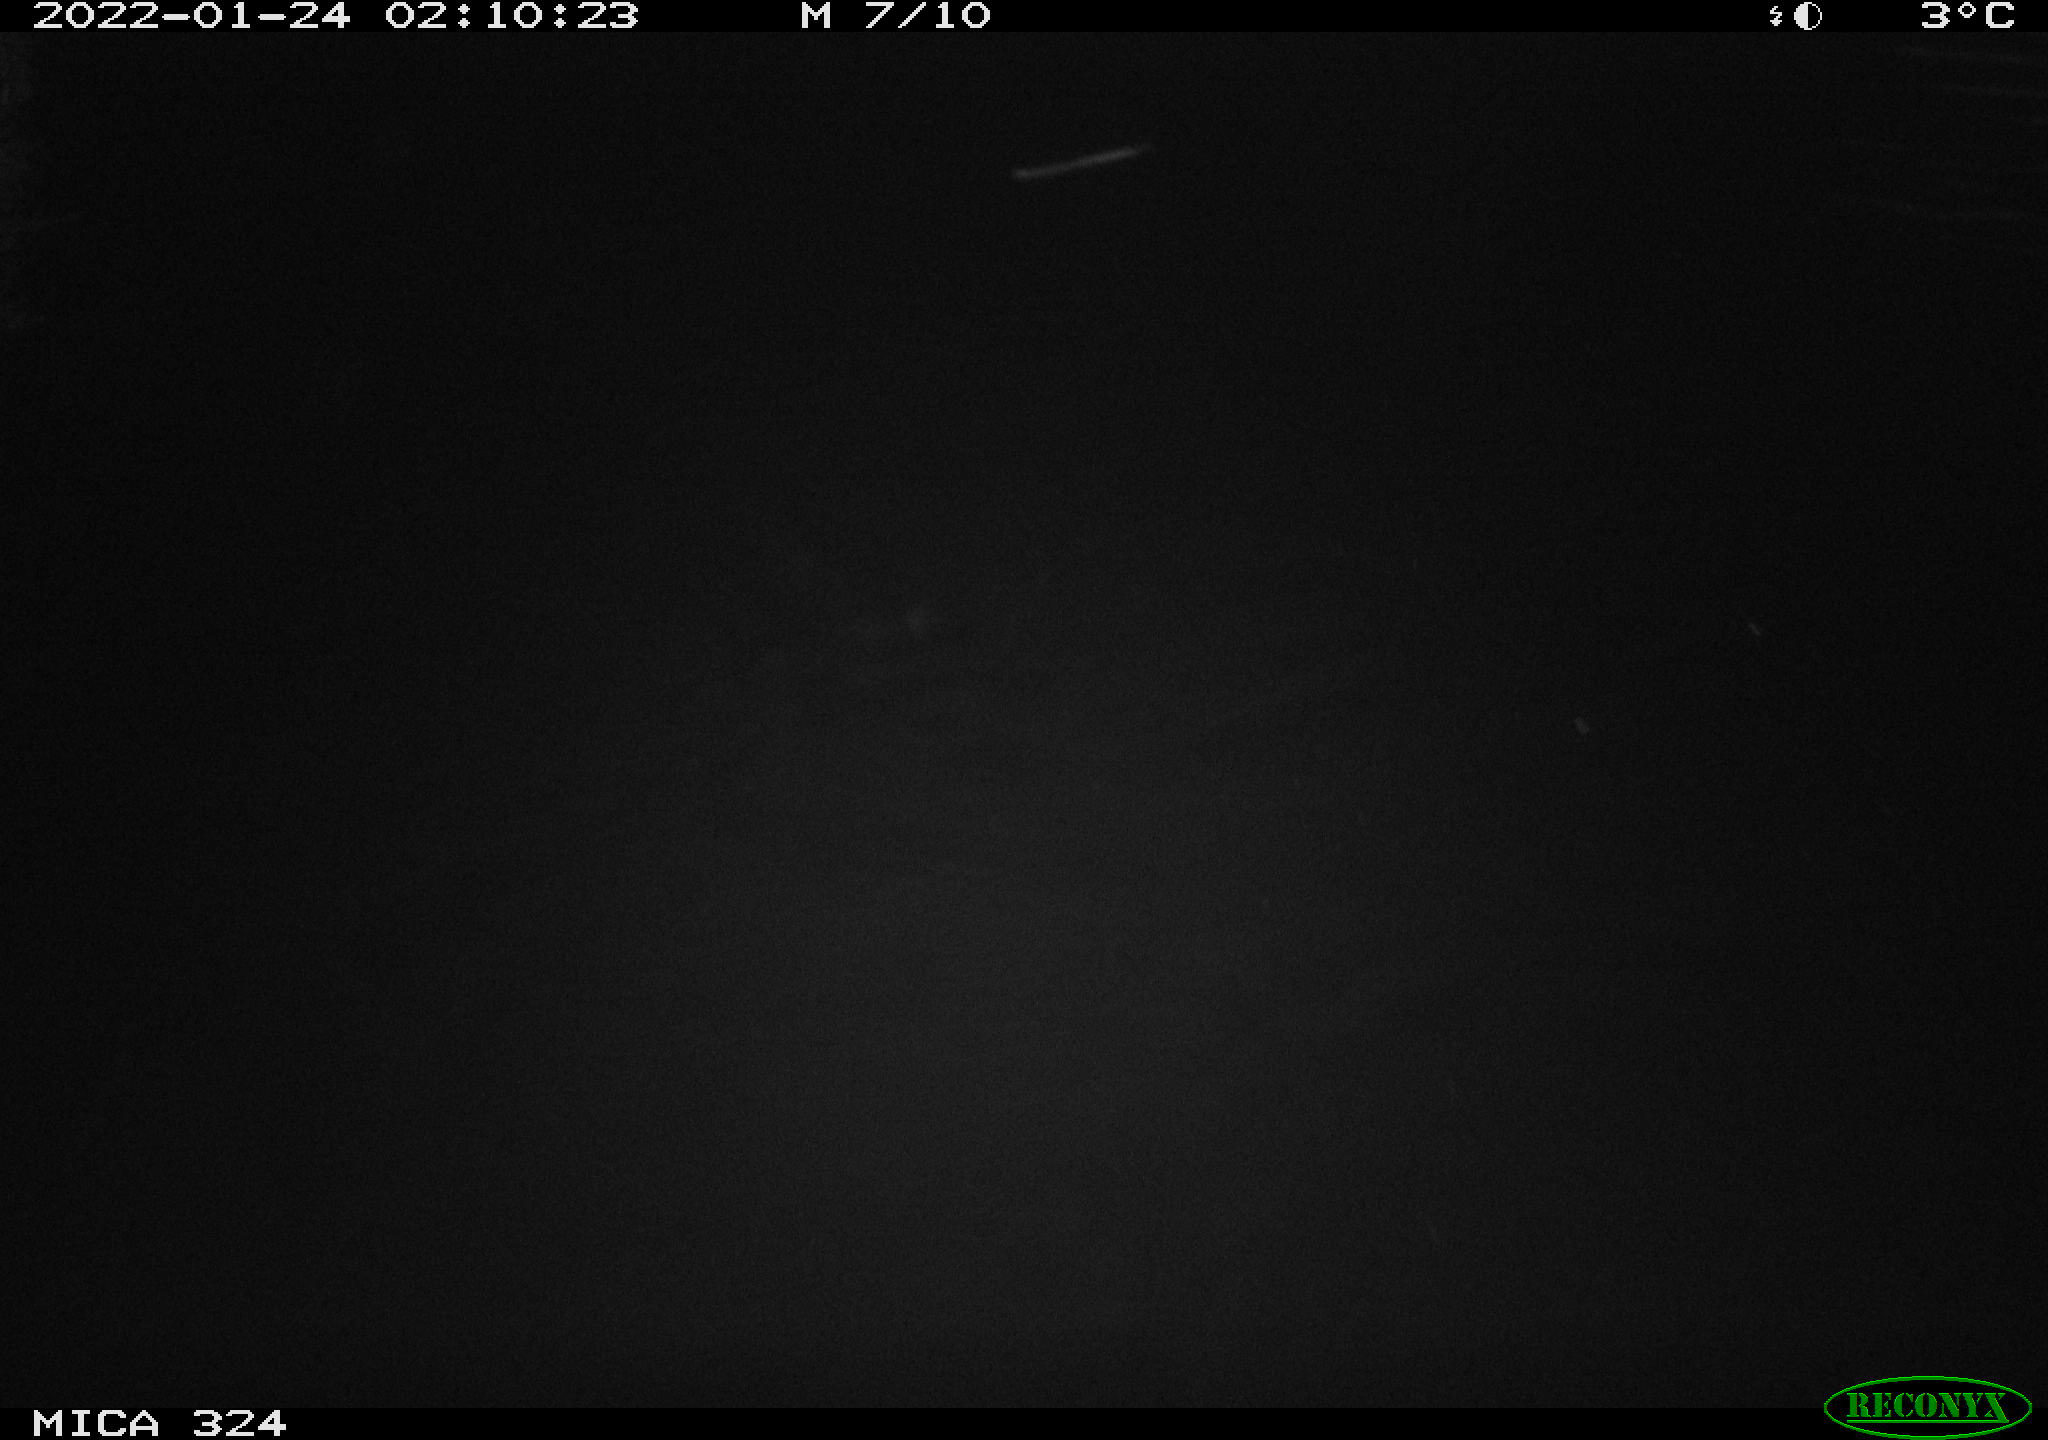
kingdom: Animalia
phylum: Chordata
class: Mammalia
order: Rodentia
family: Cricetidae
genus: Ondatra
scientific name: Ondatra zibethicus
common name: Muskrat
